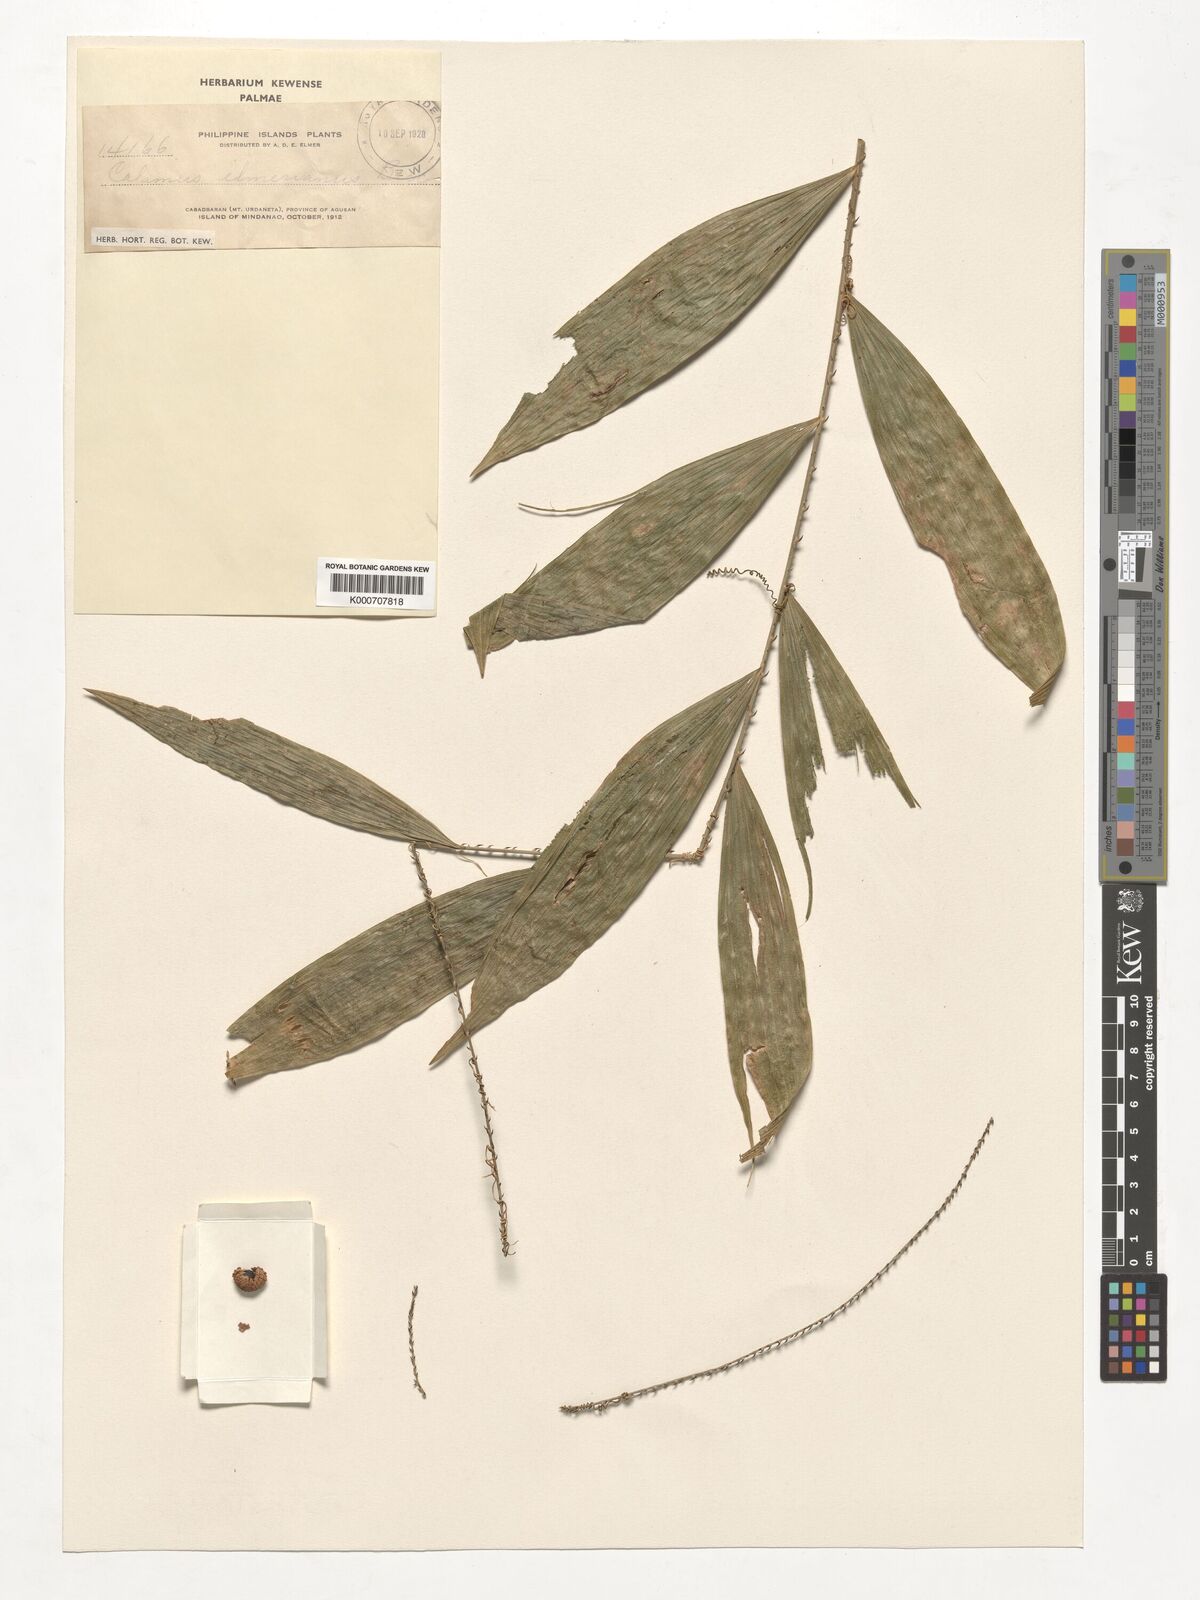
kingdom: Plantae
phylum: Tracheophyta
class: Liliopsida
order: Arecales
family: Arecaceae
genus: Calamus
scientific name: Calamus mitis
